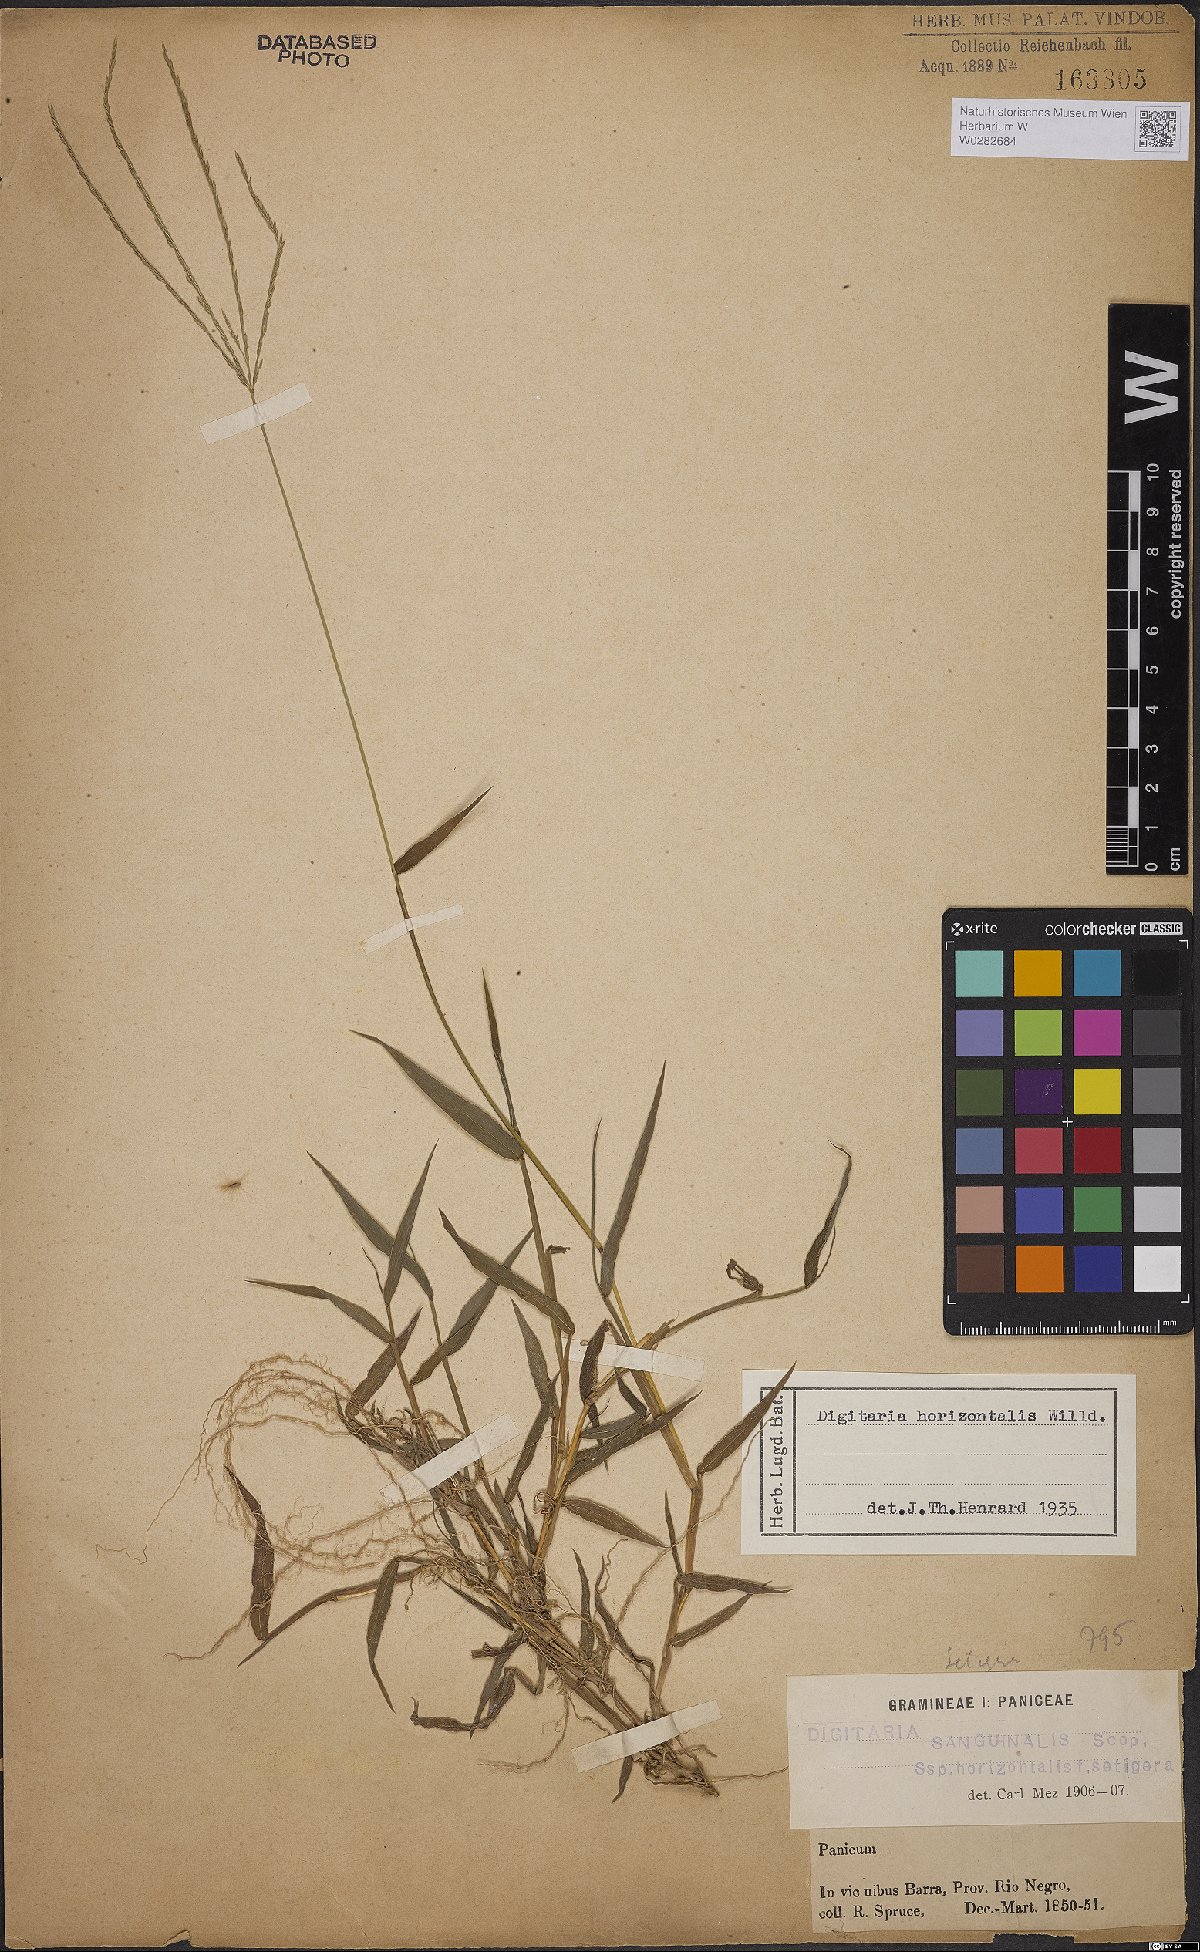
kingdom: Plantae
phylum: Tracheophyta
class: Liliopsida
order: Poales
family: Poaceae
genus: Digitaria
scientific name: Digitaria horizontalis
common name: Jamaican crabgrass
